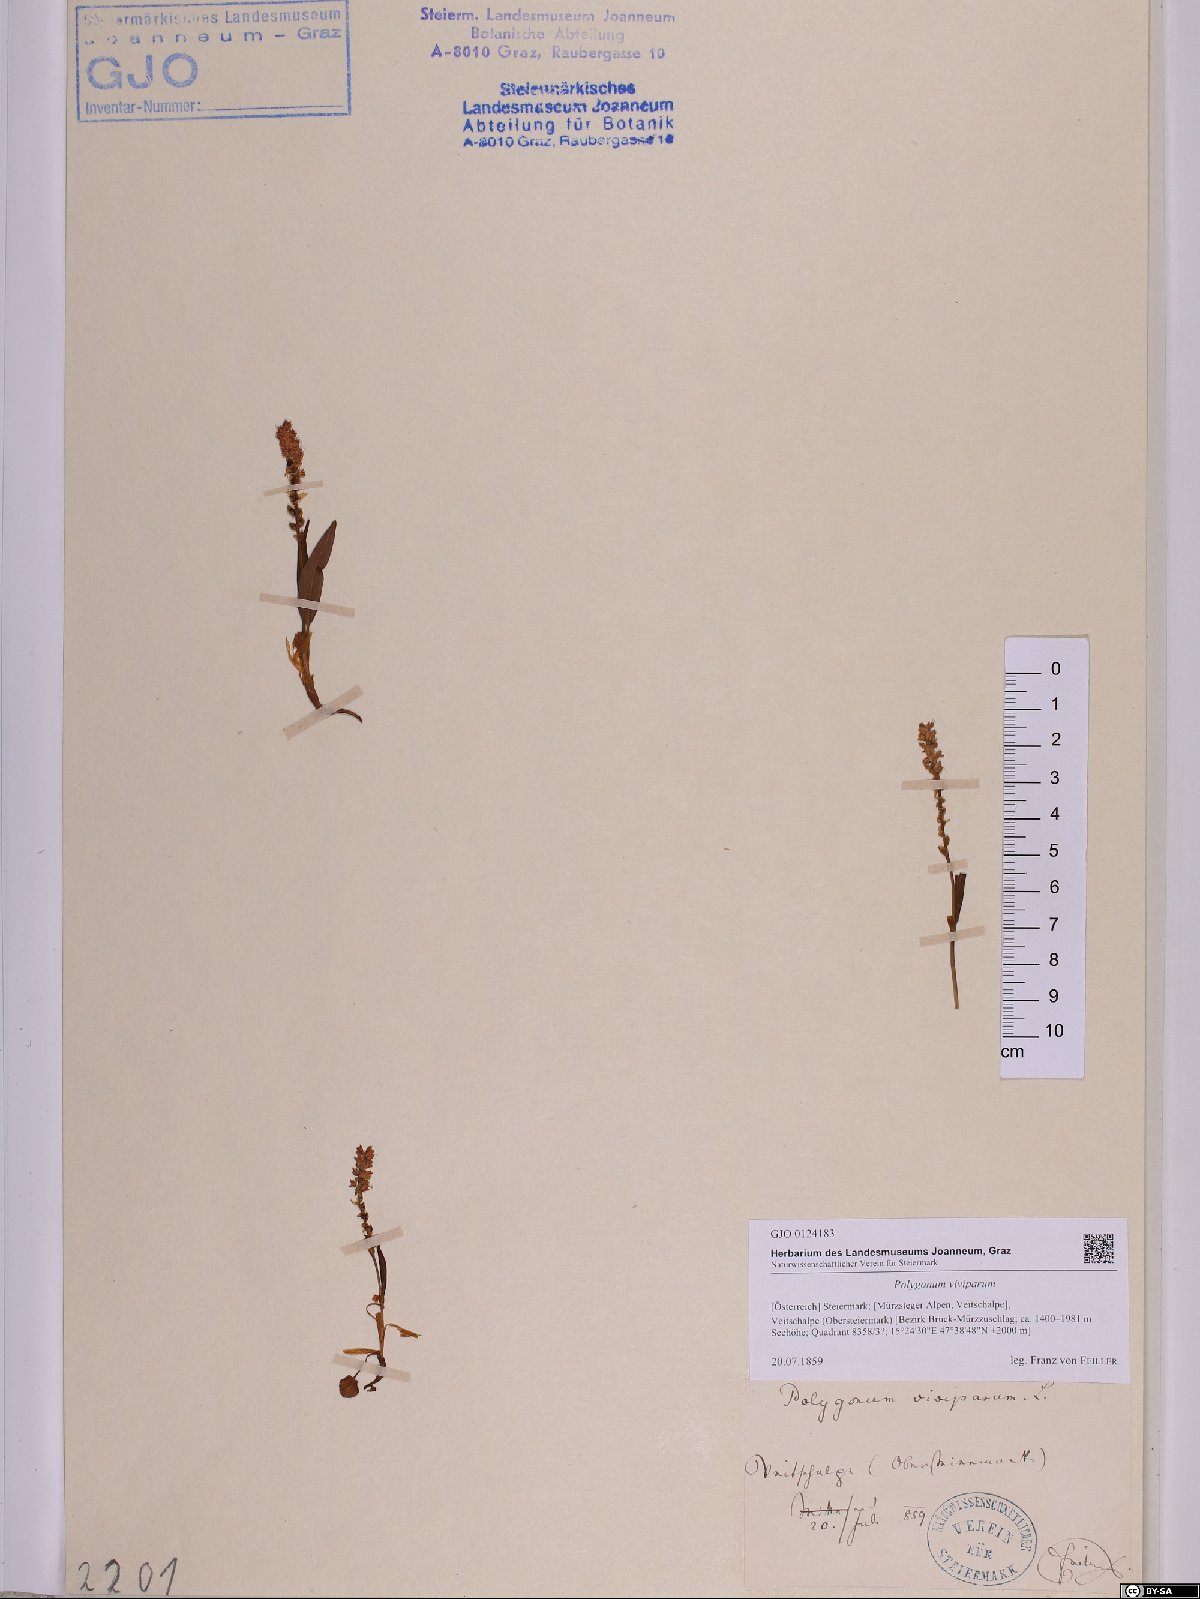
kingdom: Plantae
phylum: Tracheophyta
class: Magnoliopsida
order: Caryophyllales
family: Polygonaceae
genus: Bistorta
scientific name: Bistorta vivipara
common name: Alpine bistort
